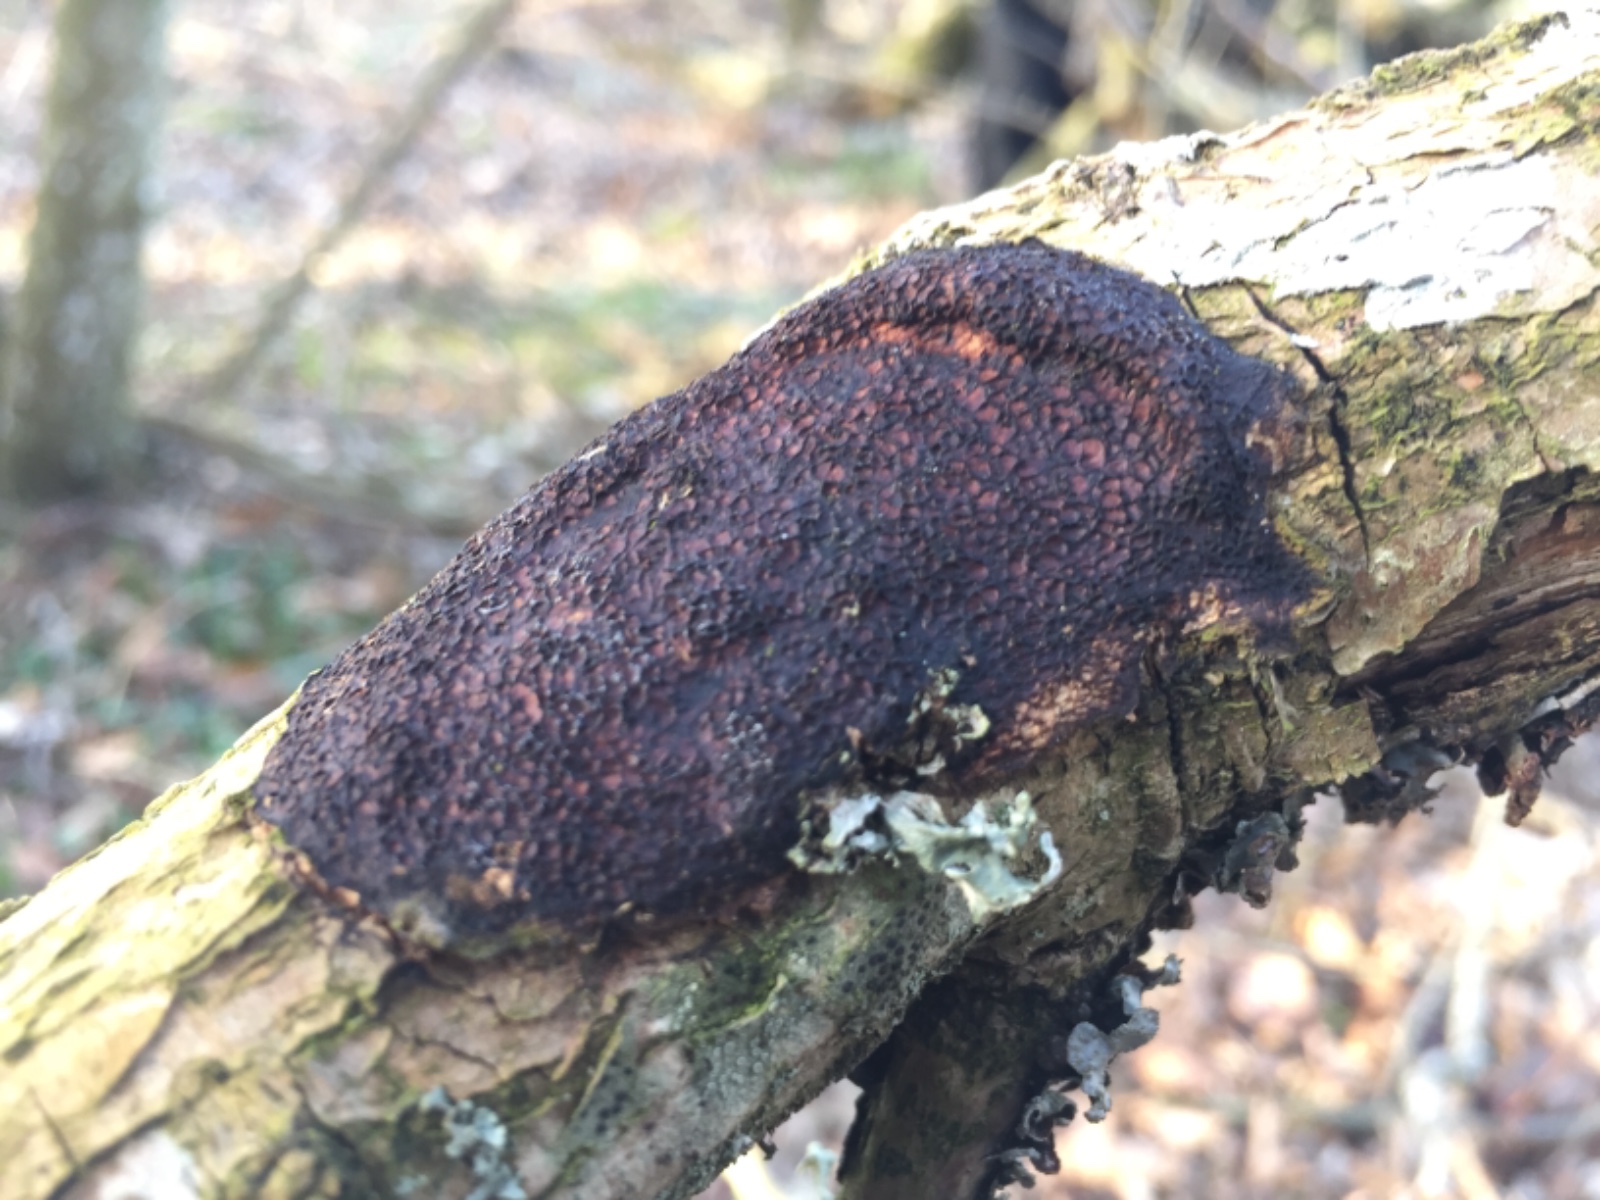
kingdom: Fungi
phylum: Basidiomycota
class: Agaricomycetes
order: Polyporales
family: Polyporaceae
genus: Szczepkamyces
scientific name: Szczepkamyces campestris
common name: hasselporesvamp
